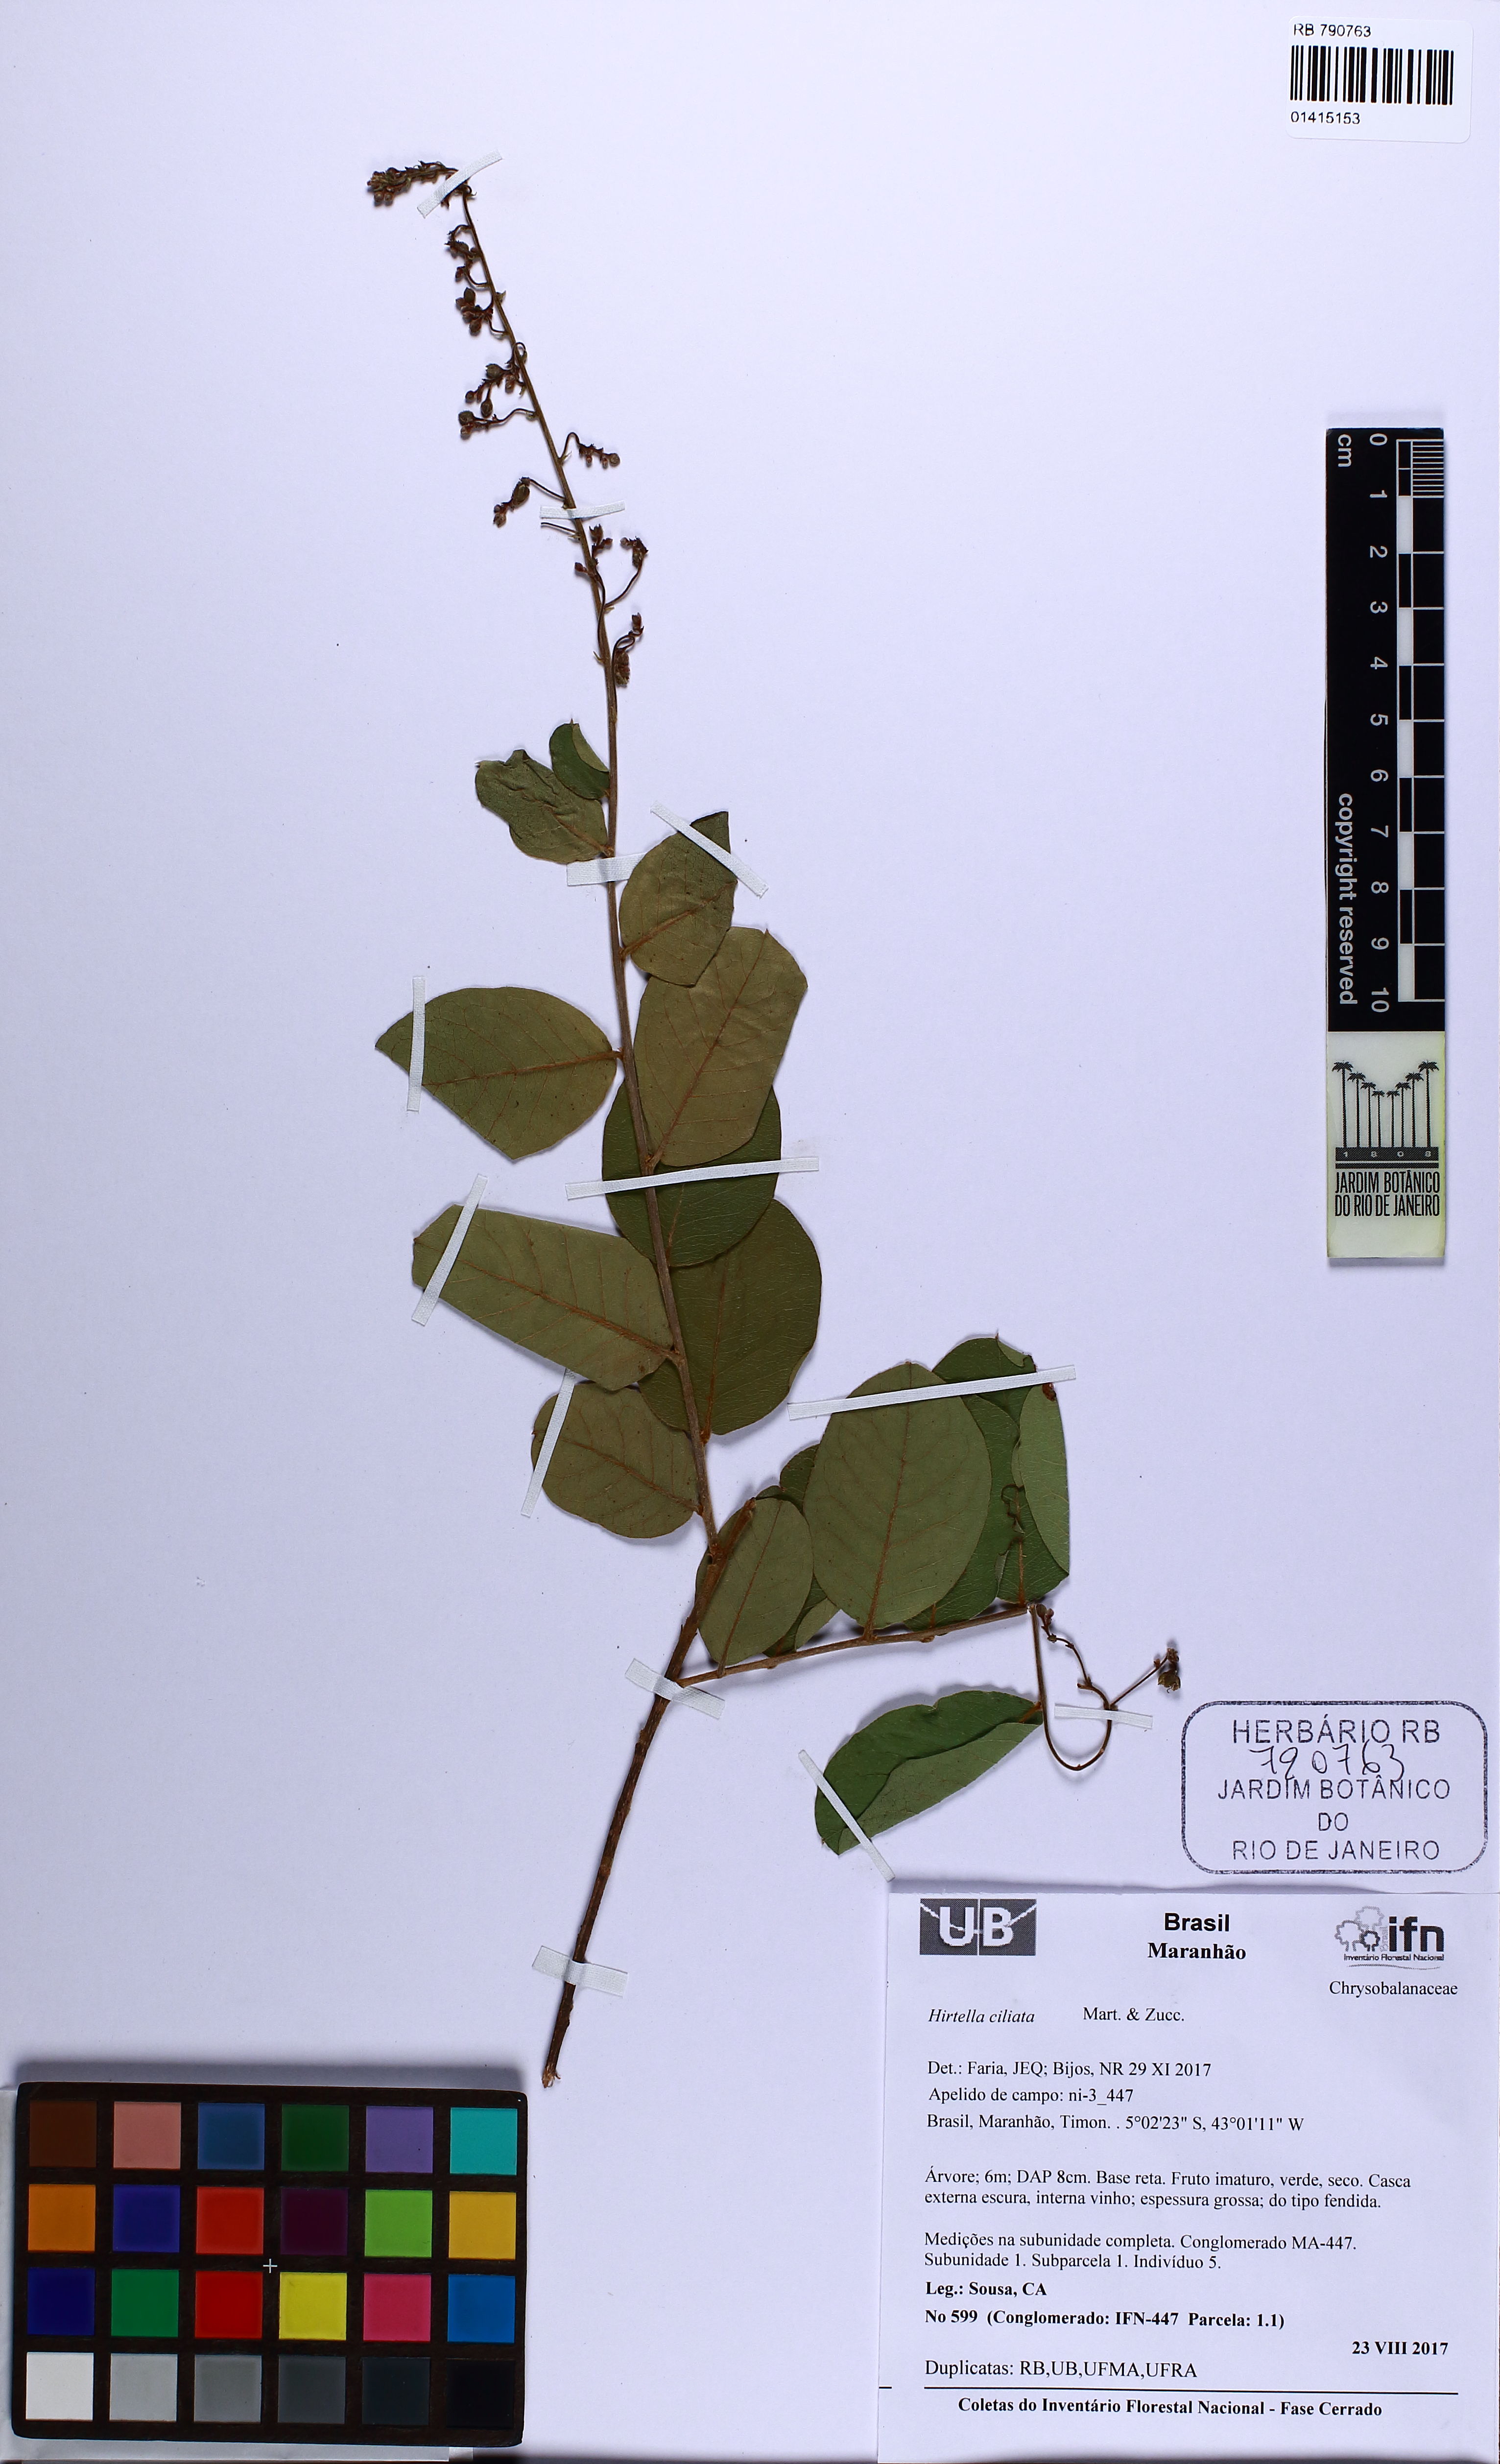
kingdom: Plantae
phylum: Tracheophyta
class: Magnoliopsida
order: Malpighiales
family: Chrysobalanaceae
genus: Hirtella
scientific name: Hirtella ciliata
